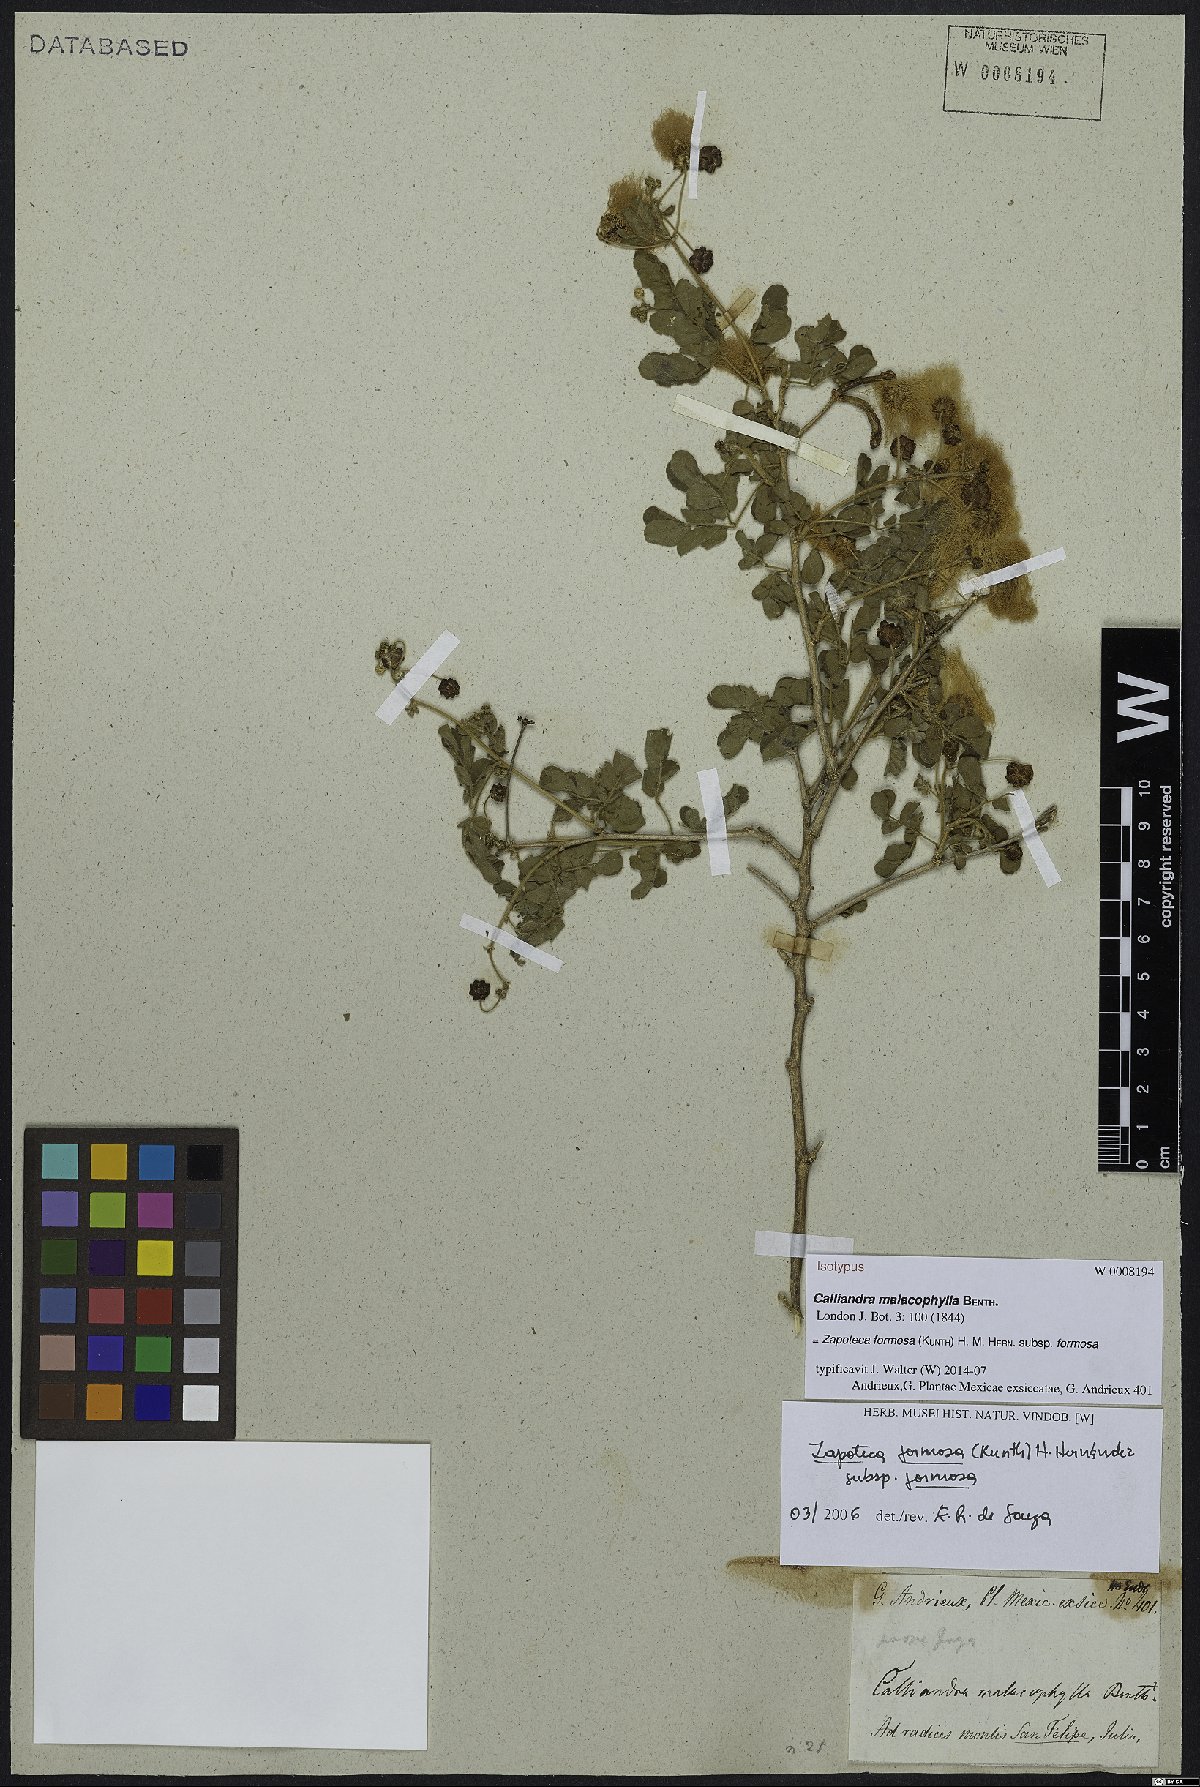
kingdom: Plantae
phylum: Tracheophyta
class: Magnoliopsida
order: Fabales
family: Fabaceae
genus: Zapoteca
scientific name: Zapoteca formosa
